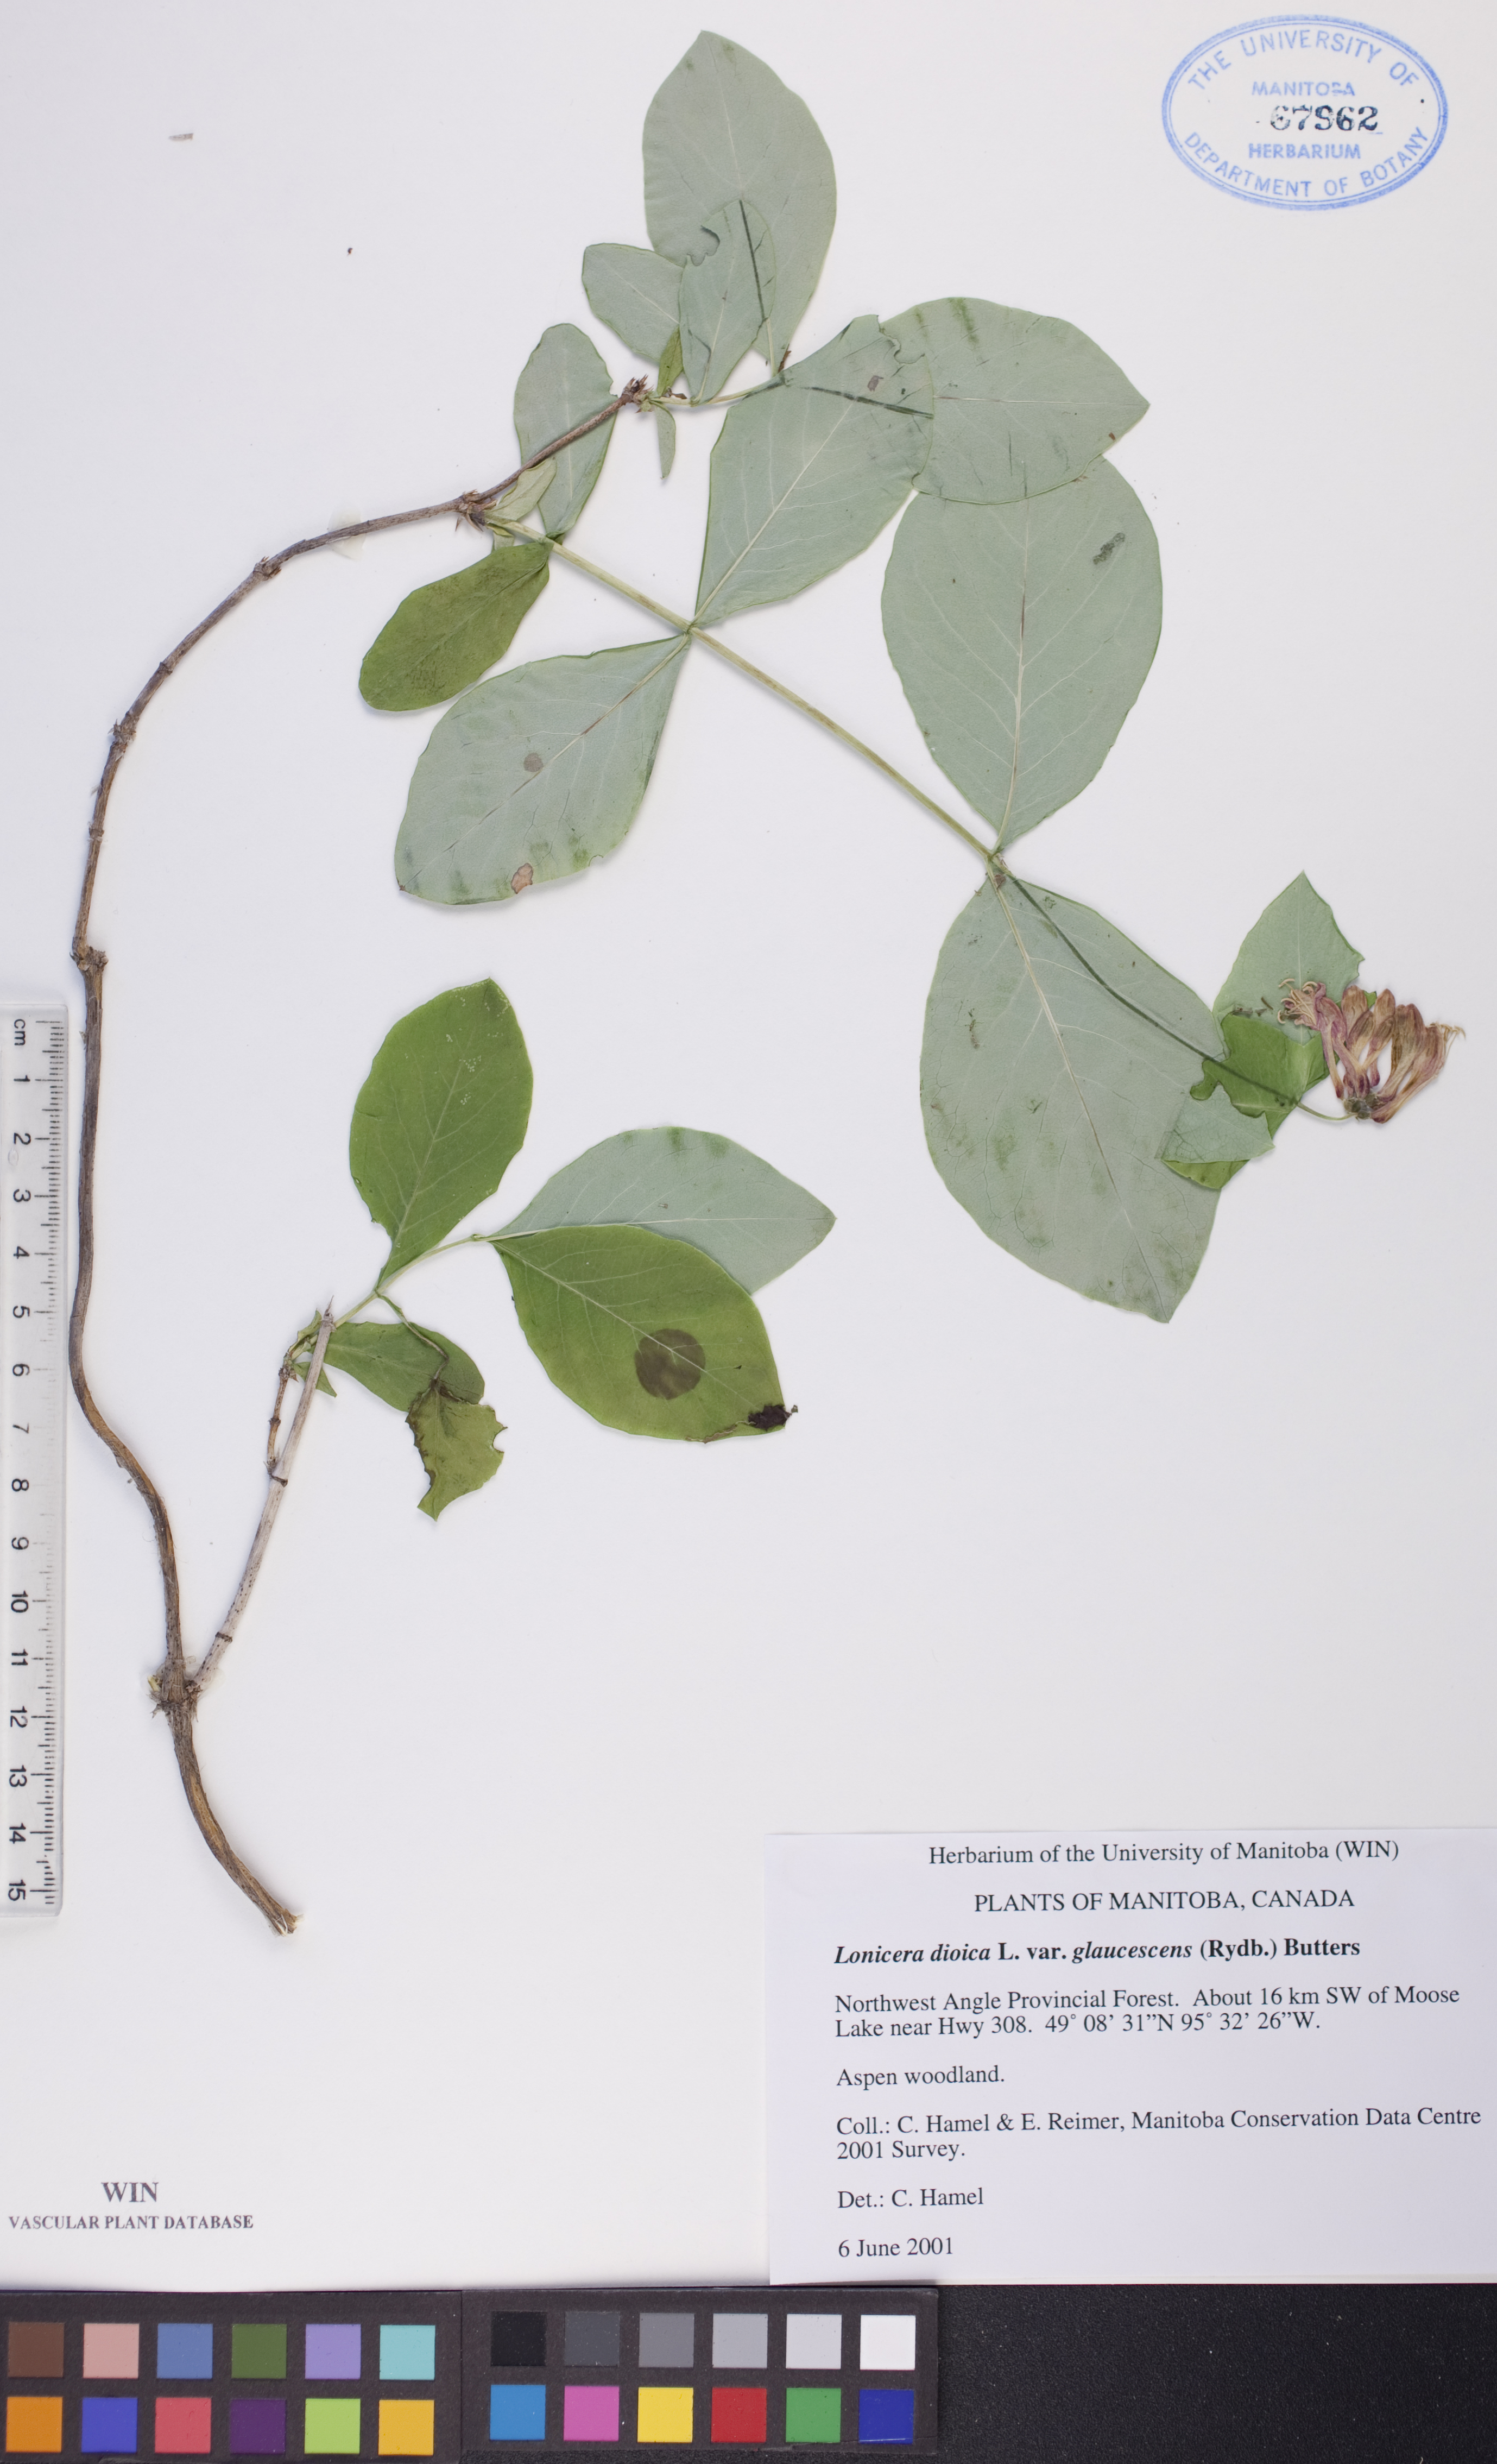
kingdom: Plantae
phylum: Tracheophyta
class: Magnoliopsida
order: Dipsacales
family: Caprifoliaceae
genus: Lonicera
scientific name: Lonicera dioica
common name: Limber honeysuckle
